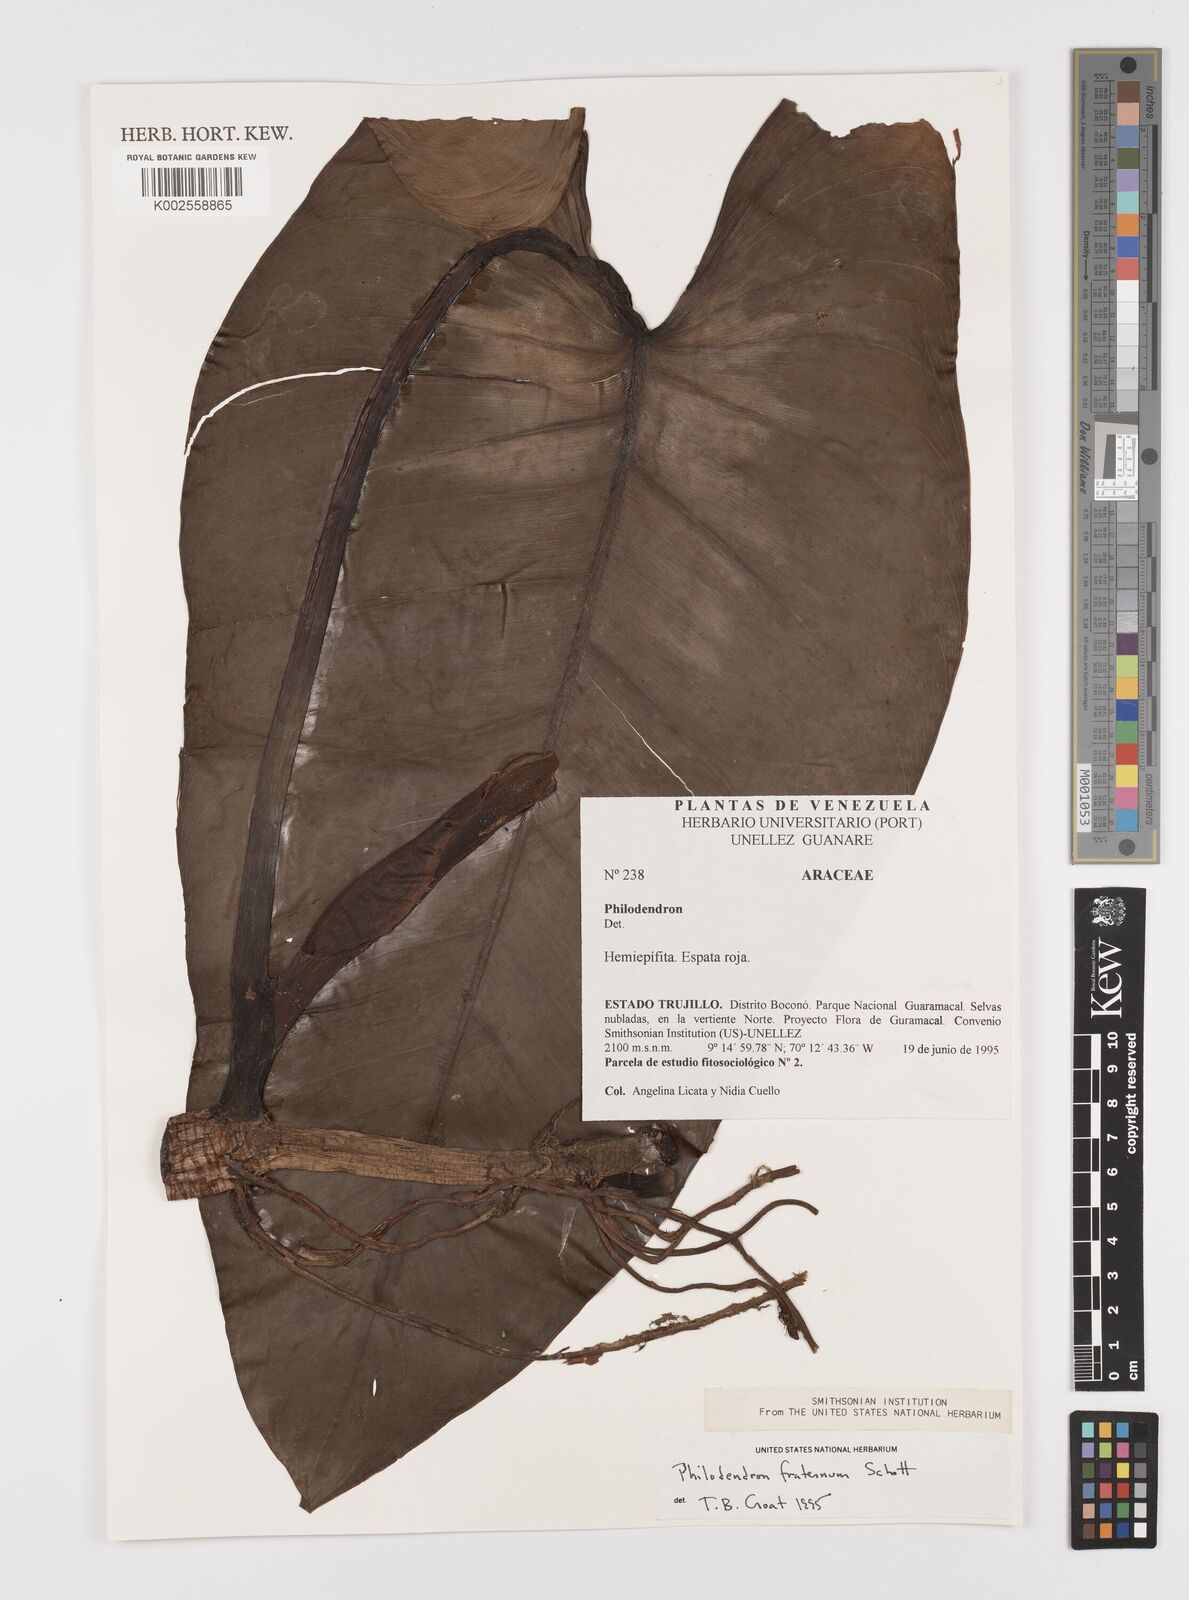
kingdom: Plantae
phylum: Tracheophyta
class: Liliopsida
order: Alismatales
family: Araceae
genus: Philodendron
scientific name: Philodendron fraternum
